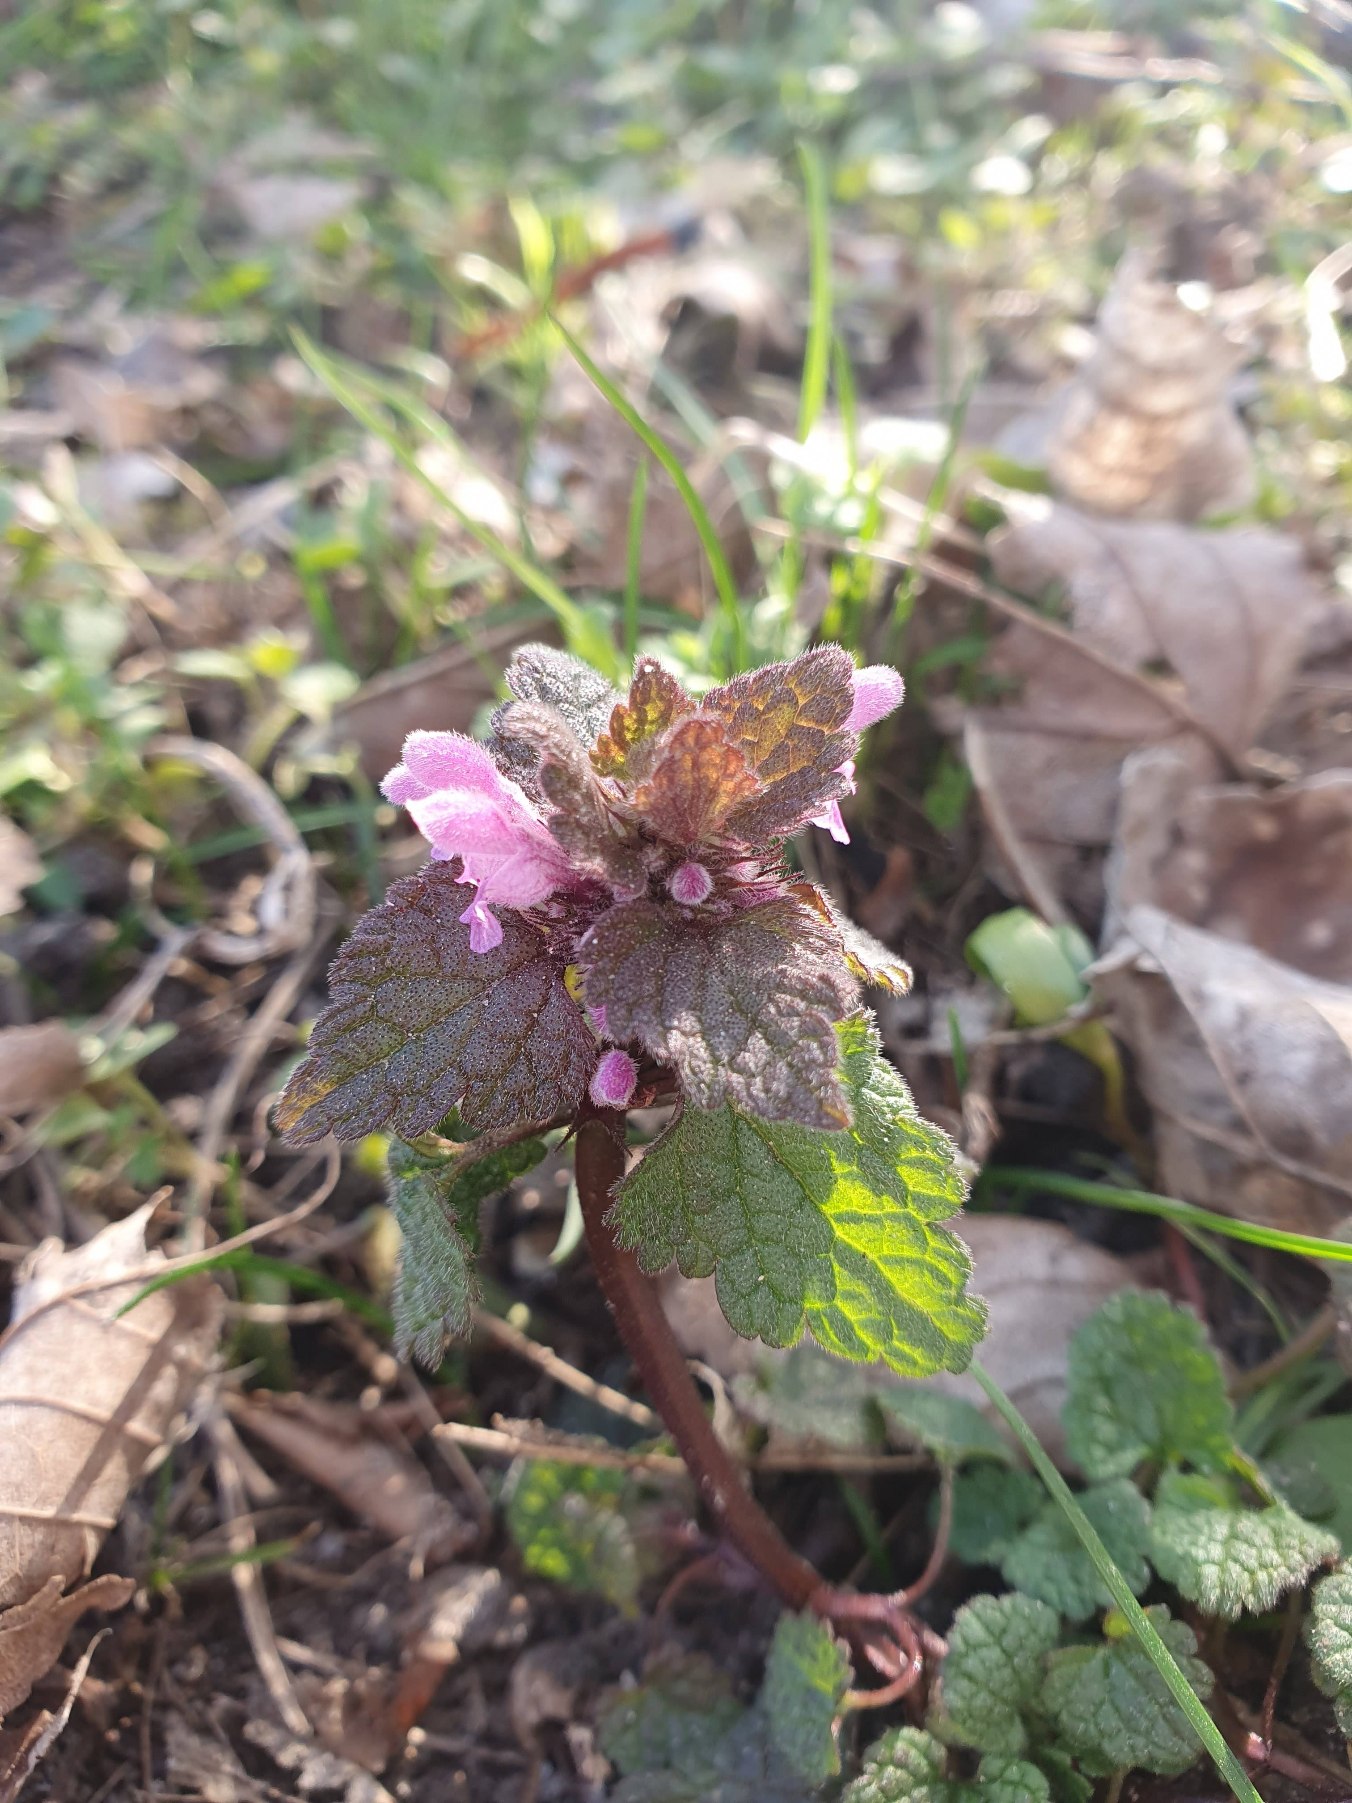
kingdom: Plantae
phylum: Tracheophyta
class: Magnoliopsida
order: Lamiales
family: Lamiaceae
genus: Lamium
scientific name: Lamium purpureum
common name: Rød tvetand
